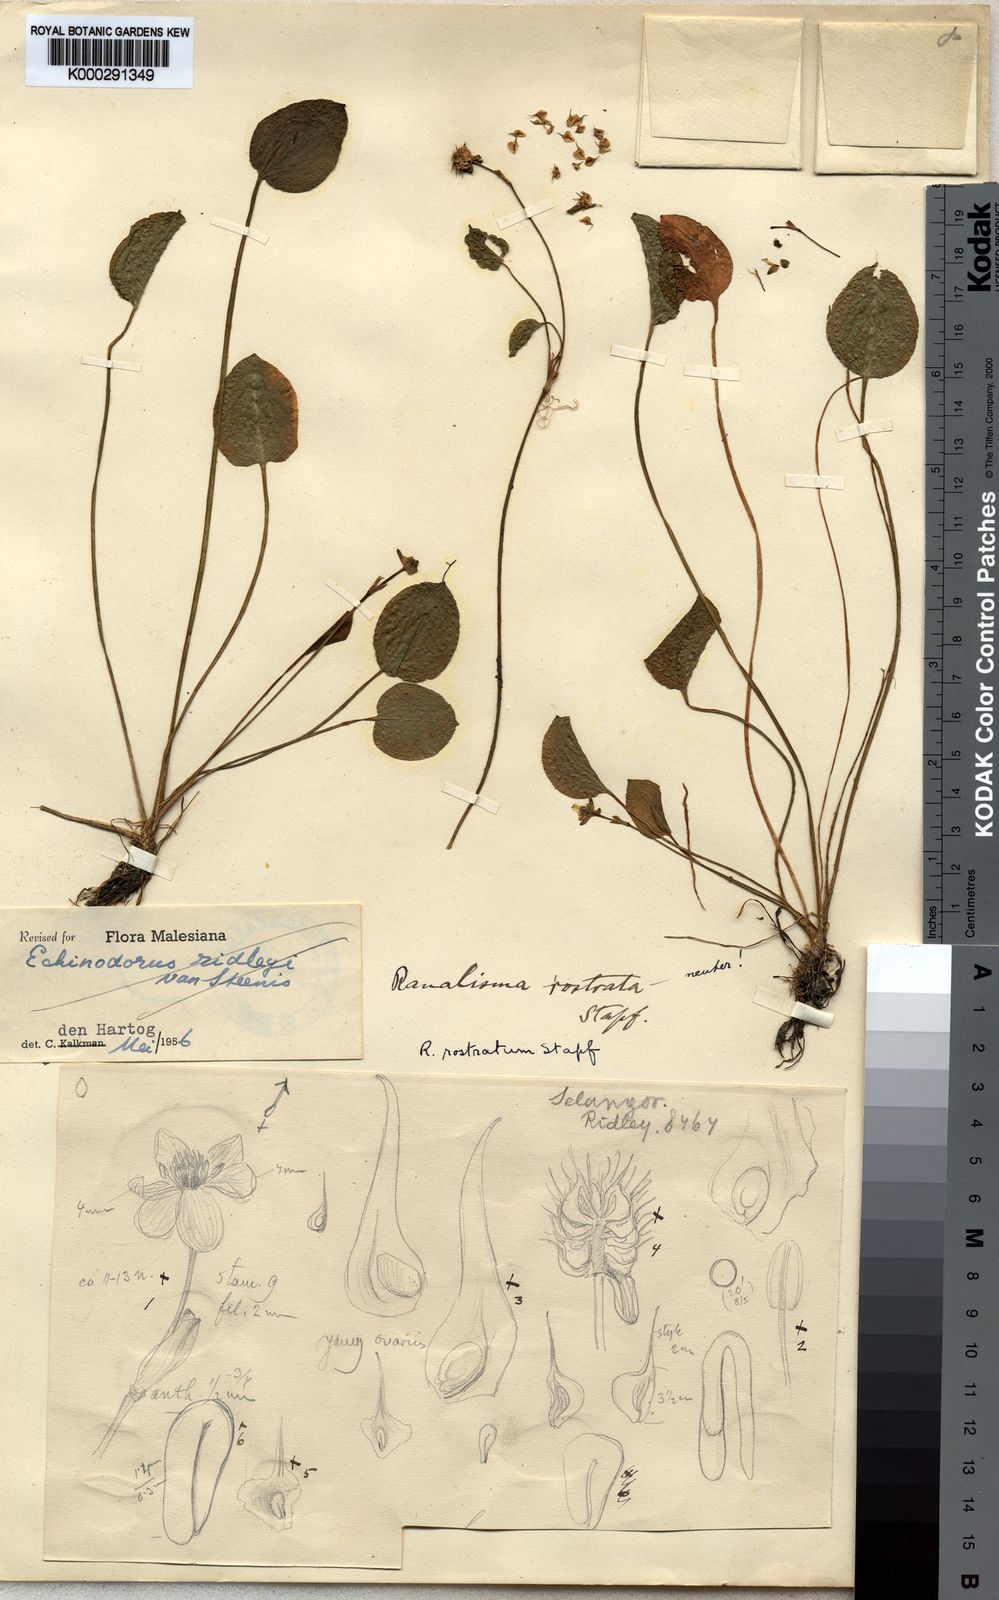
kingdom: Plantae
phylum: Tracheophyta
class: Liliopsida
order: Alismatales
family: Alismataceae
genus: Ranalisma
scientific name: Ranalisma rostrata
